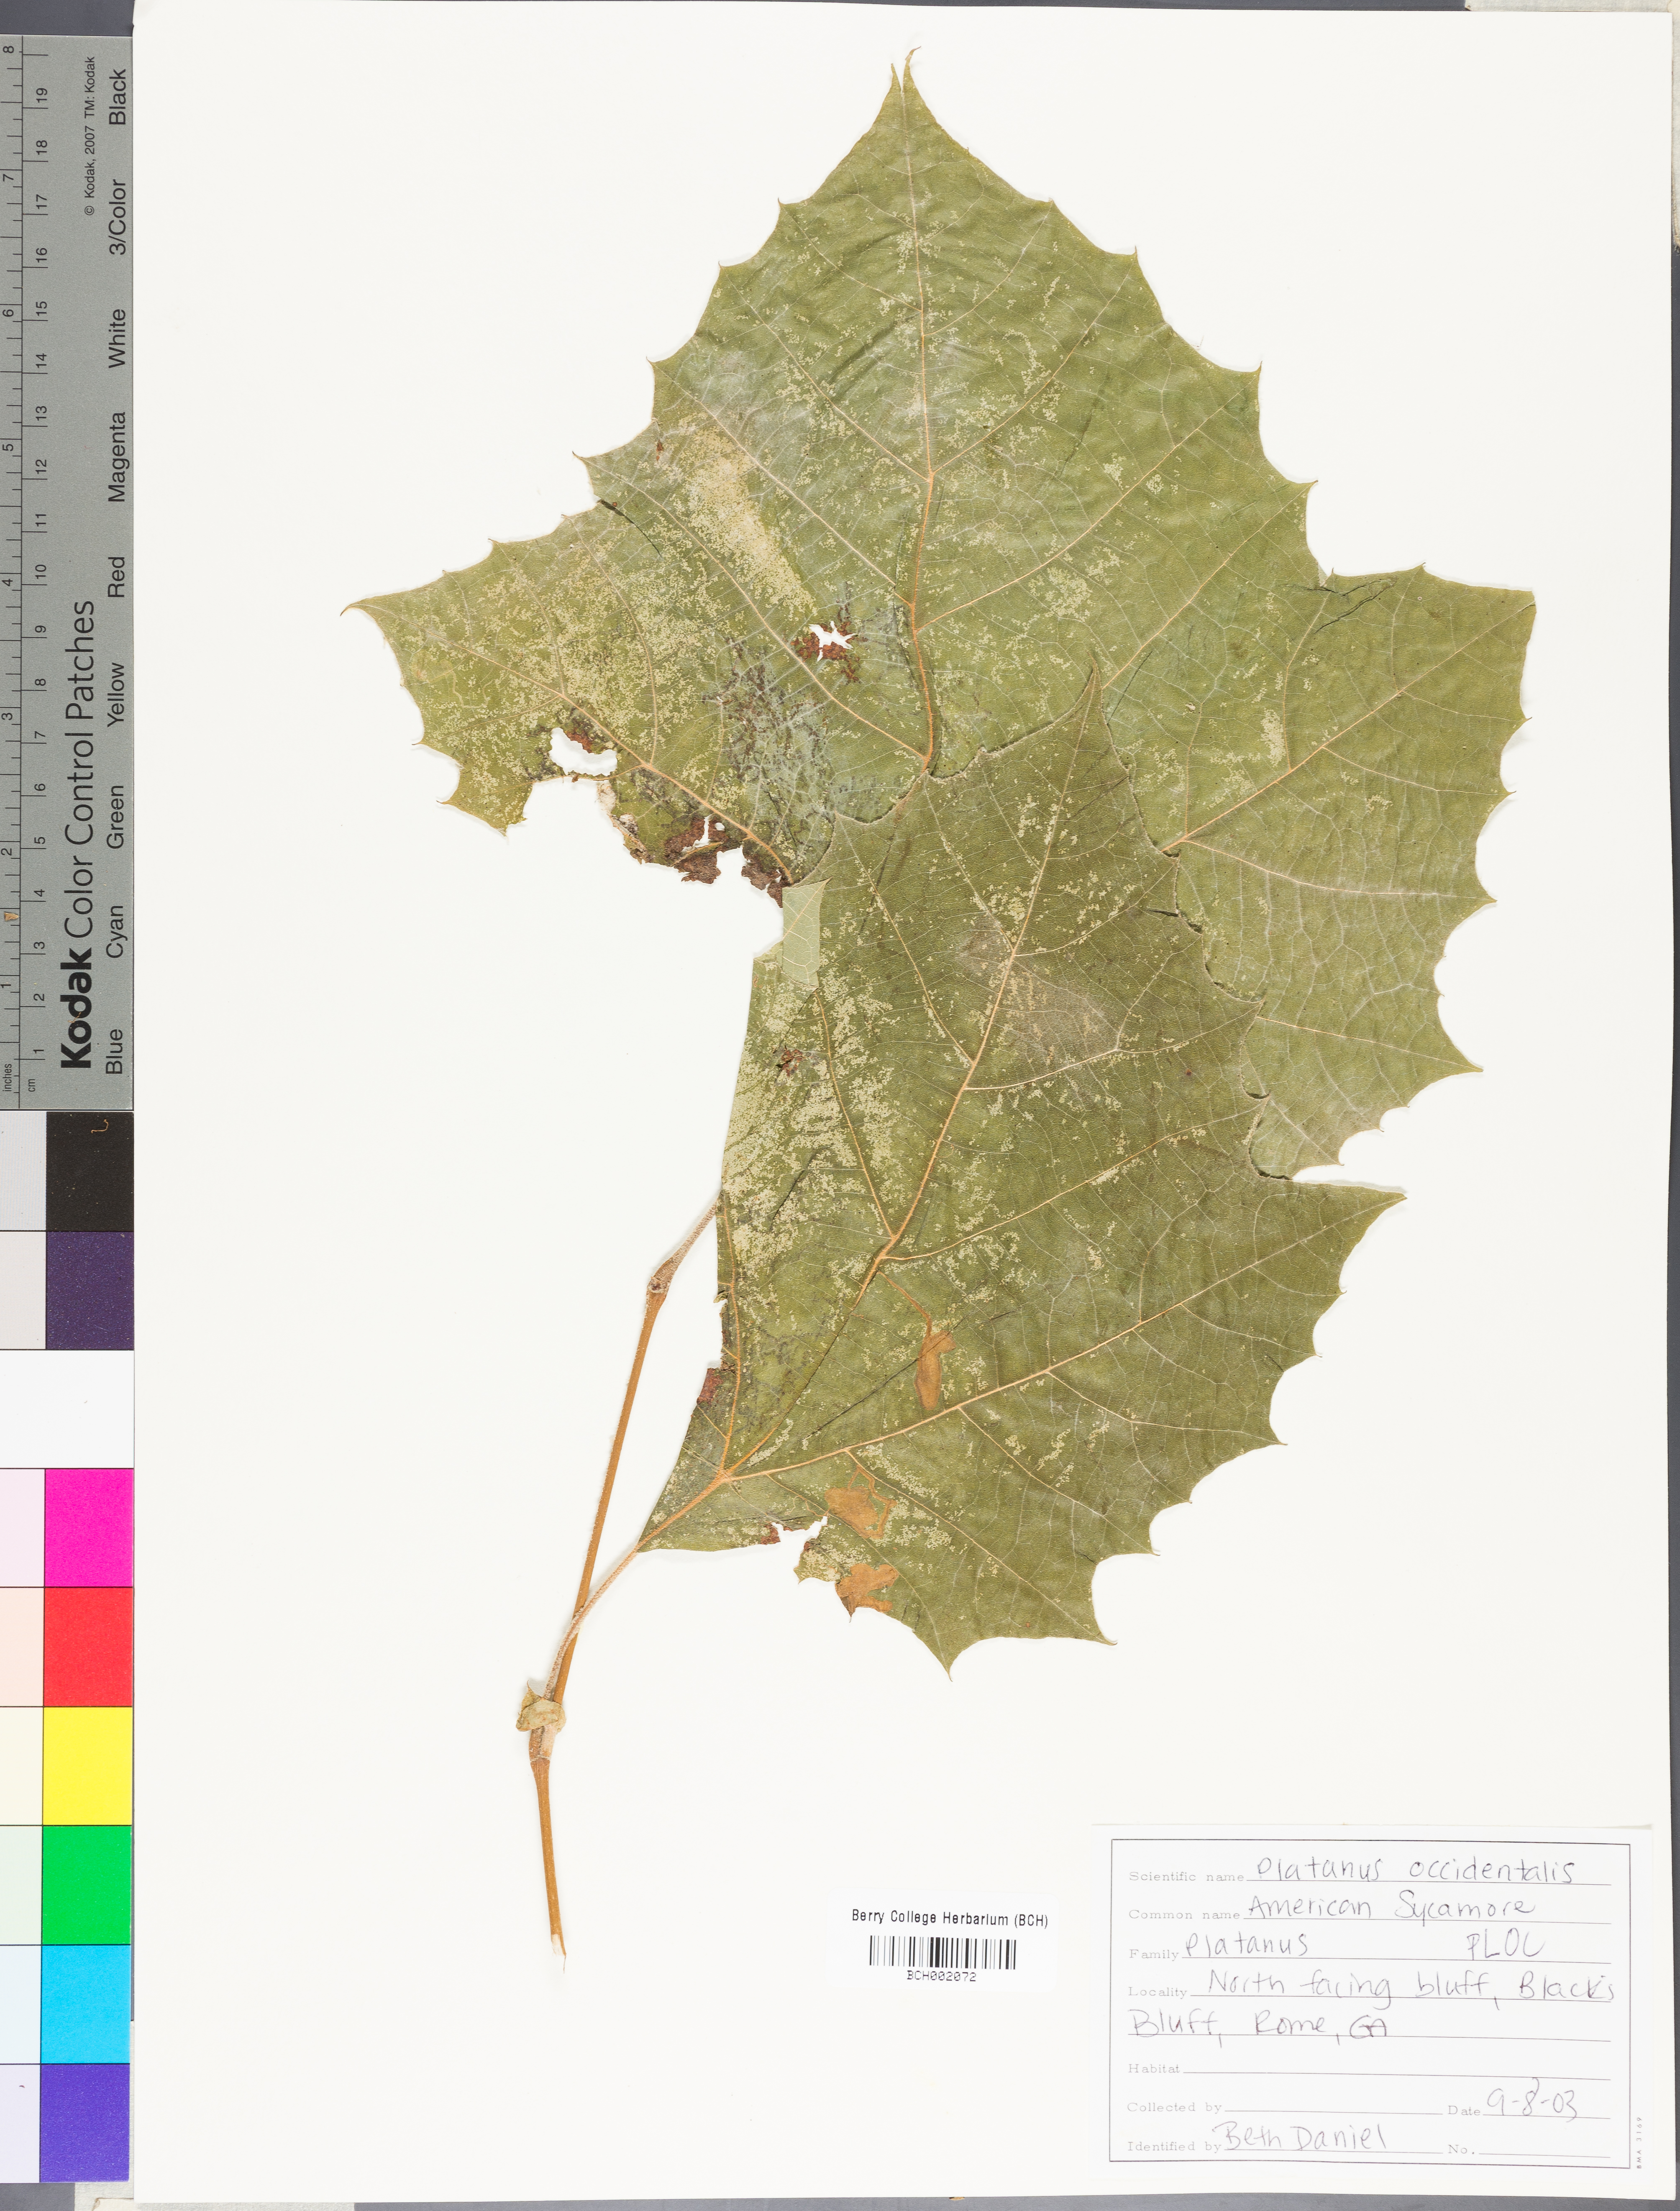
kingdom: Plantae
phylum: Tracheophyta
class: Magnoliopsida
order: Proteales
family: Platanaceae
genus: Platanus
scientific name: Platanus occidentalis
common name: American sycamore
